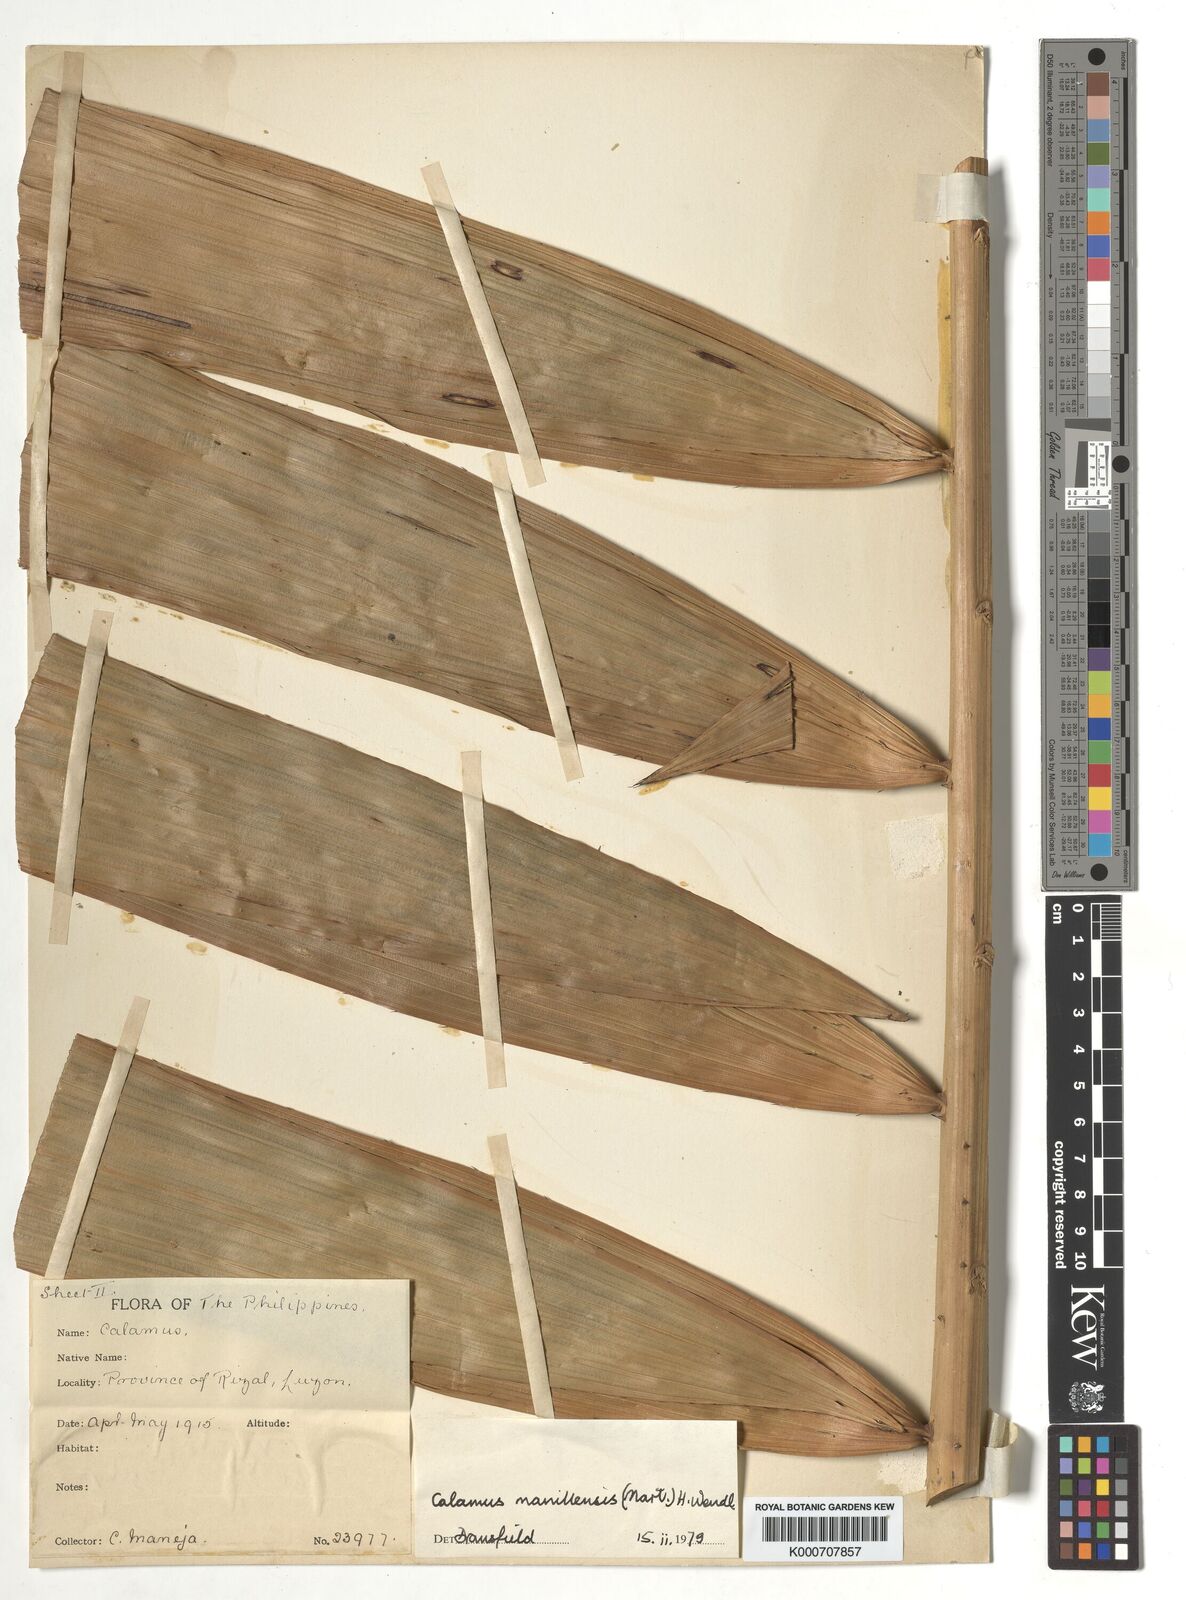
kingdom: Plantae
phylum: Tracheophyta
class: Liliopsida
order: Arecales
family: Arecaceae
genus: Calamus
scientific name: Calamus manillensis
